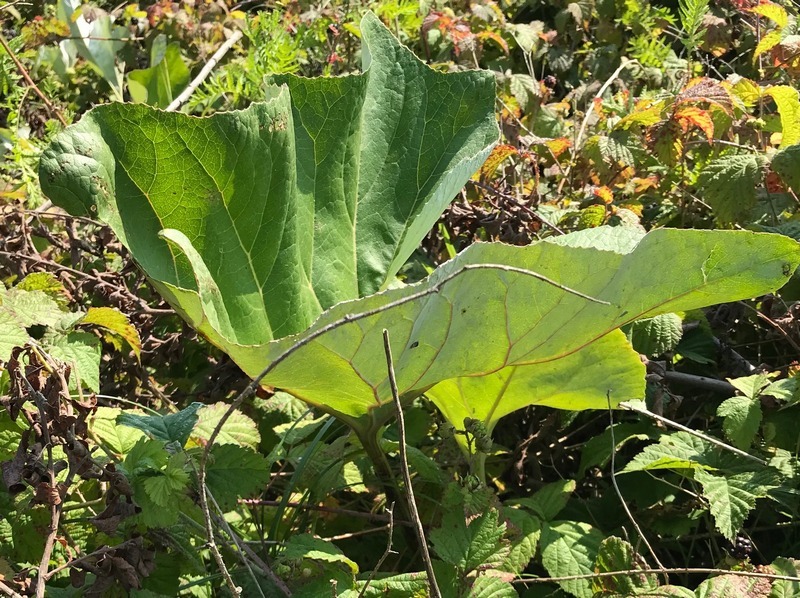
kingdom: Plantae
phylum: Tracheophyta
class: Magnoliopsida
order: Asterales
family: Asteraceae
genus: Petasites
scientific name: Petasites spurius
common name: Filtet hestehov
